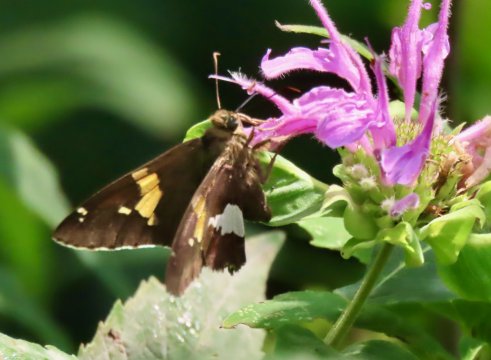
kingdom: Animalia
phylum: Arthropoda
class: Insecta
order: Lepidoptera
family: Hesperiidae
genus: Epargyreus
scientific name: Epargyreus clarus
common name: Silver-spotted Skipper
